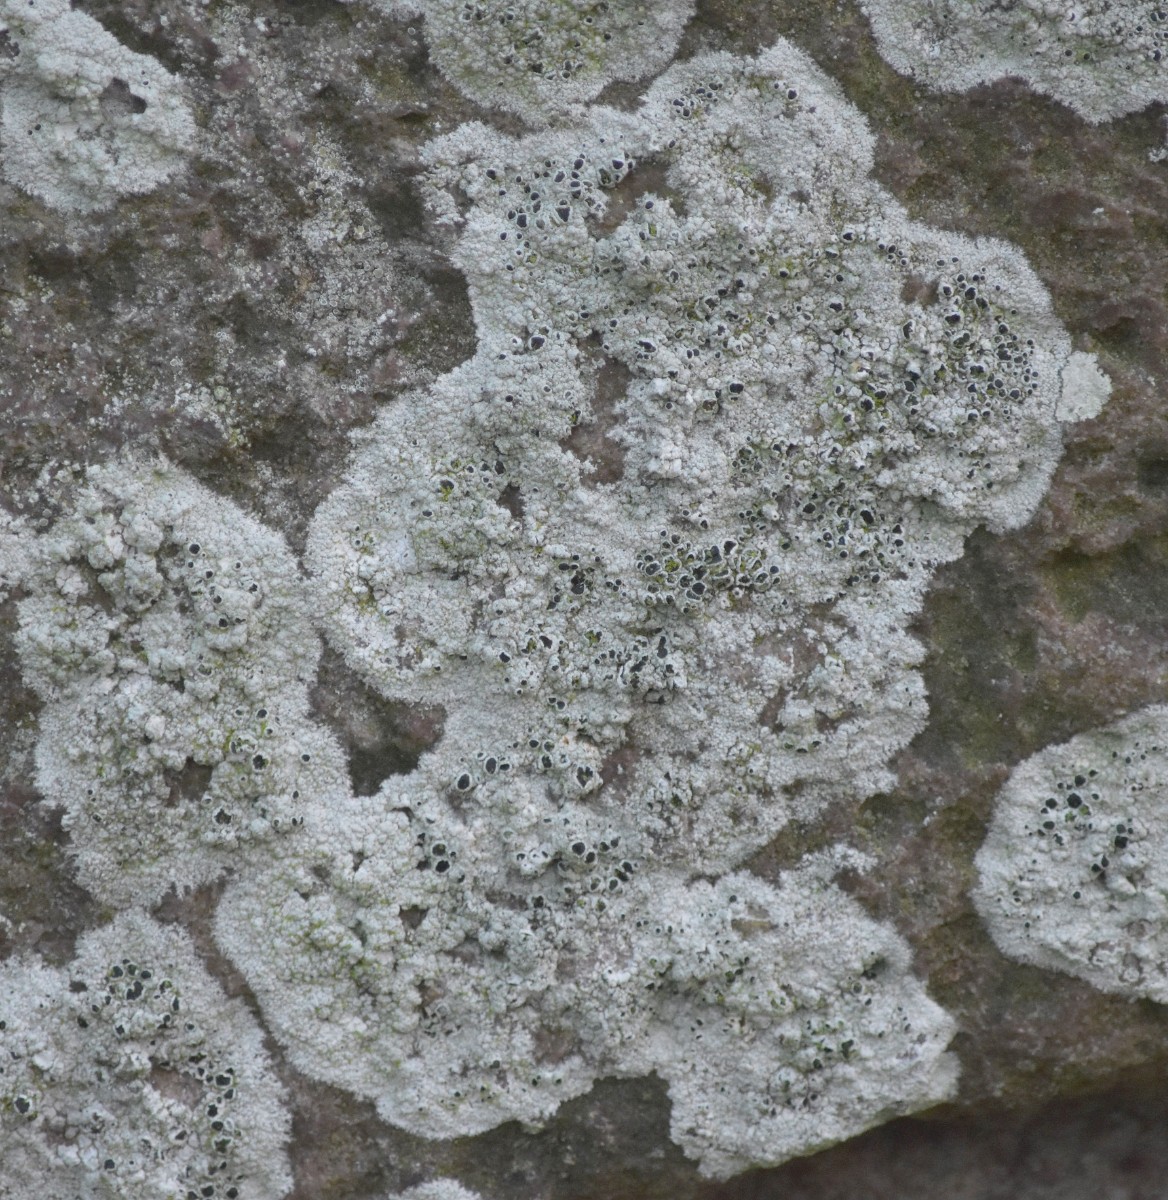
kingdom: Fungi
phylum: Ascomycota
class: Lecanoromycetes
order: Lecanorales
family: Tephromelataceae
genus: Tephromela
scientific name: Tephromela atra
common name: sortfrugtet kantskivelav
